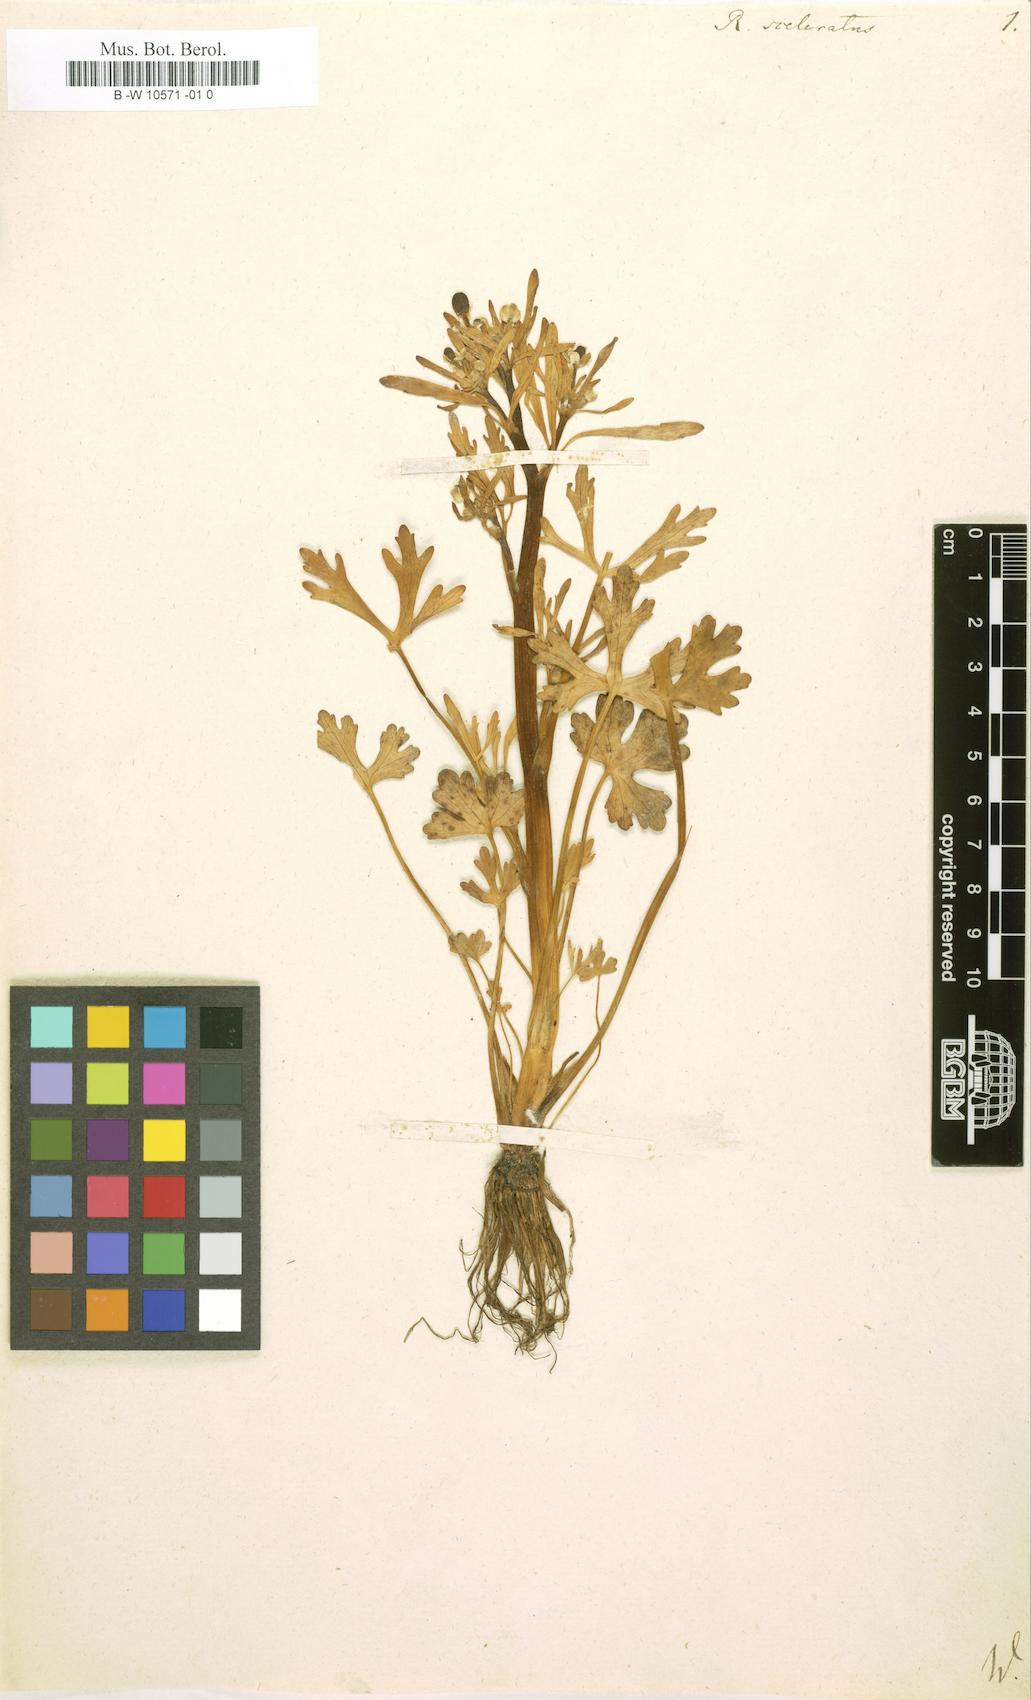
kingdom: Plantae
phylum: Tracheophyta
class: Magnoliopsida
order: Ranunculales
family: Ranunculaceae
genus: Ranunculus
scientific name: Ranunculus sceleratus
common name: Celery-leaved buttercup
